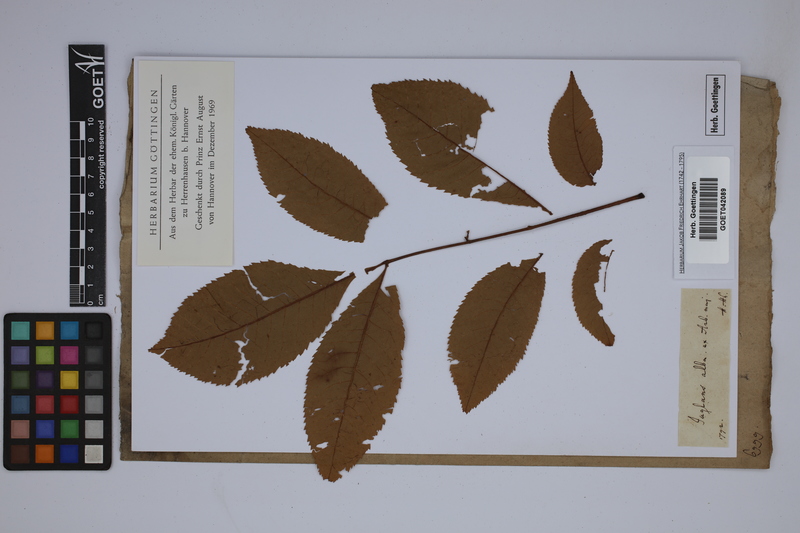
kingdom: Plantae
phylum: Tracheophyta
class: Magnoliopsida
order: Fagales
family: Juglandaceae
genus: Carya
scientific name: Carya alba
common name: Mockernut hickory
